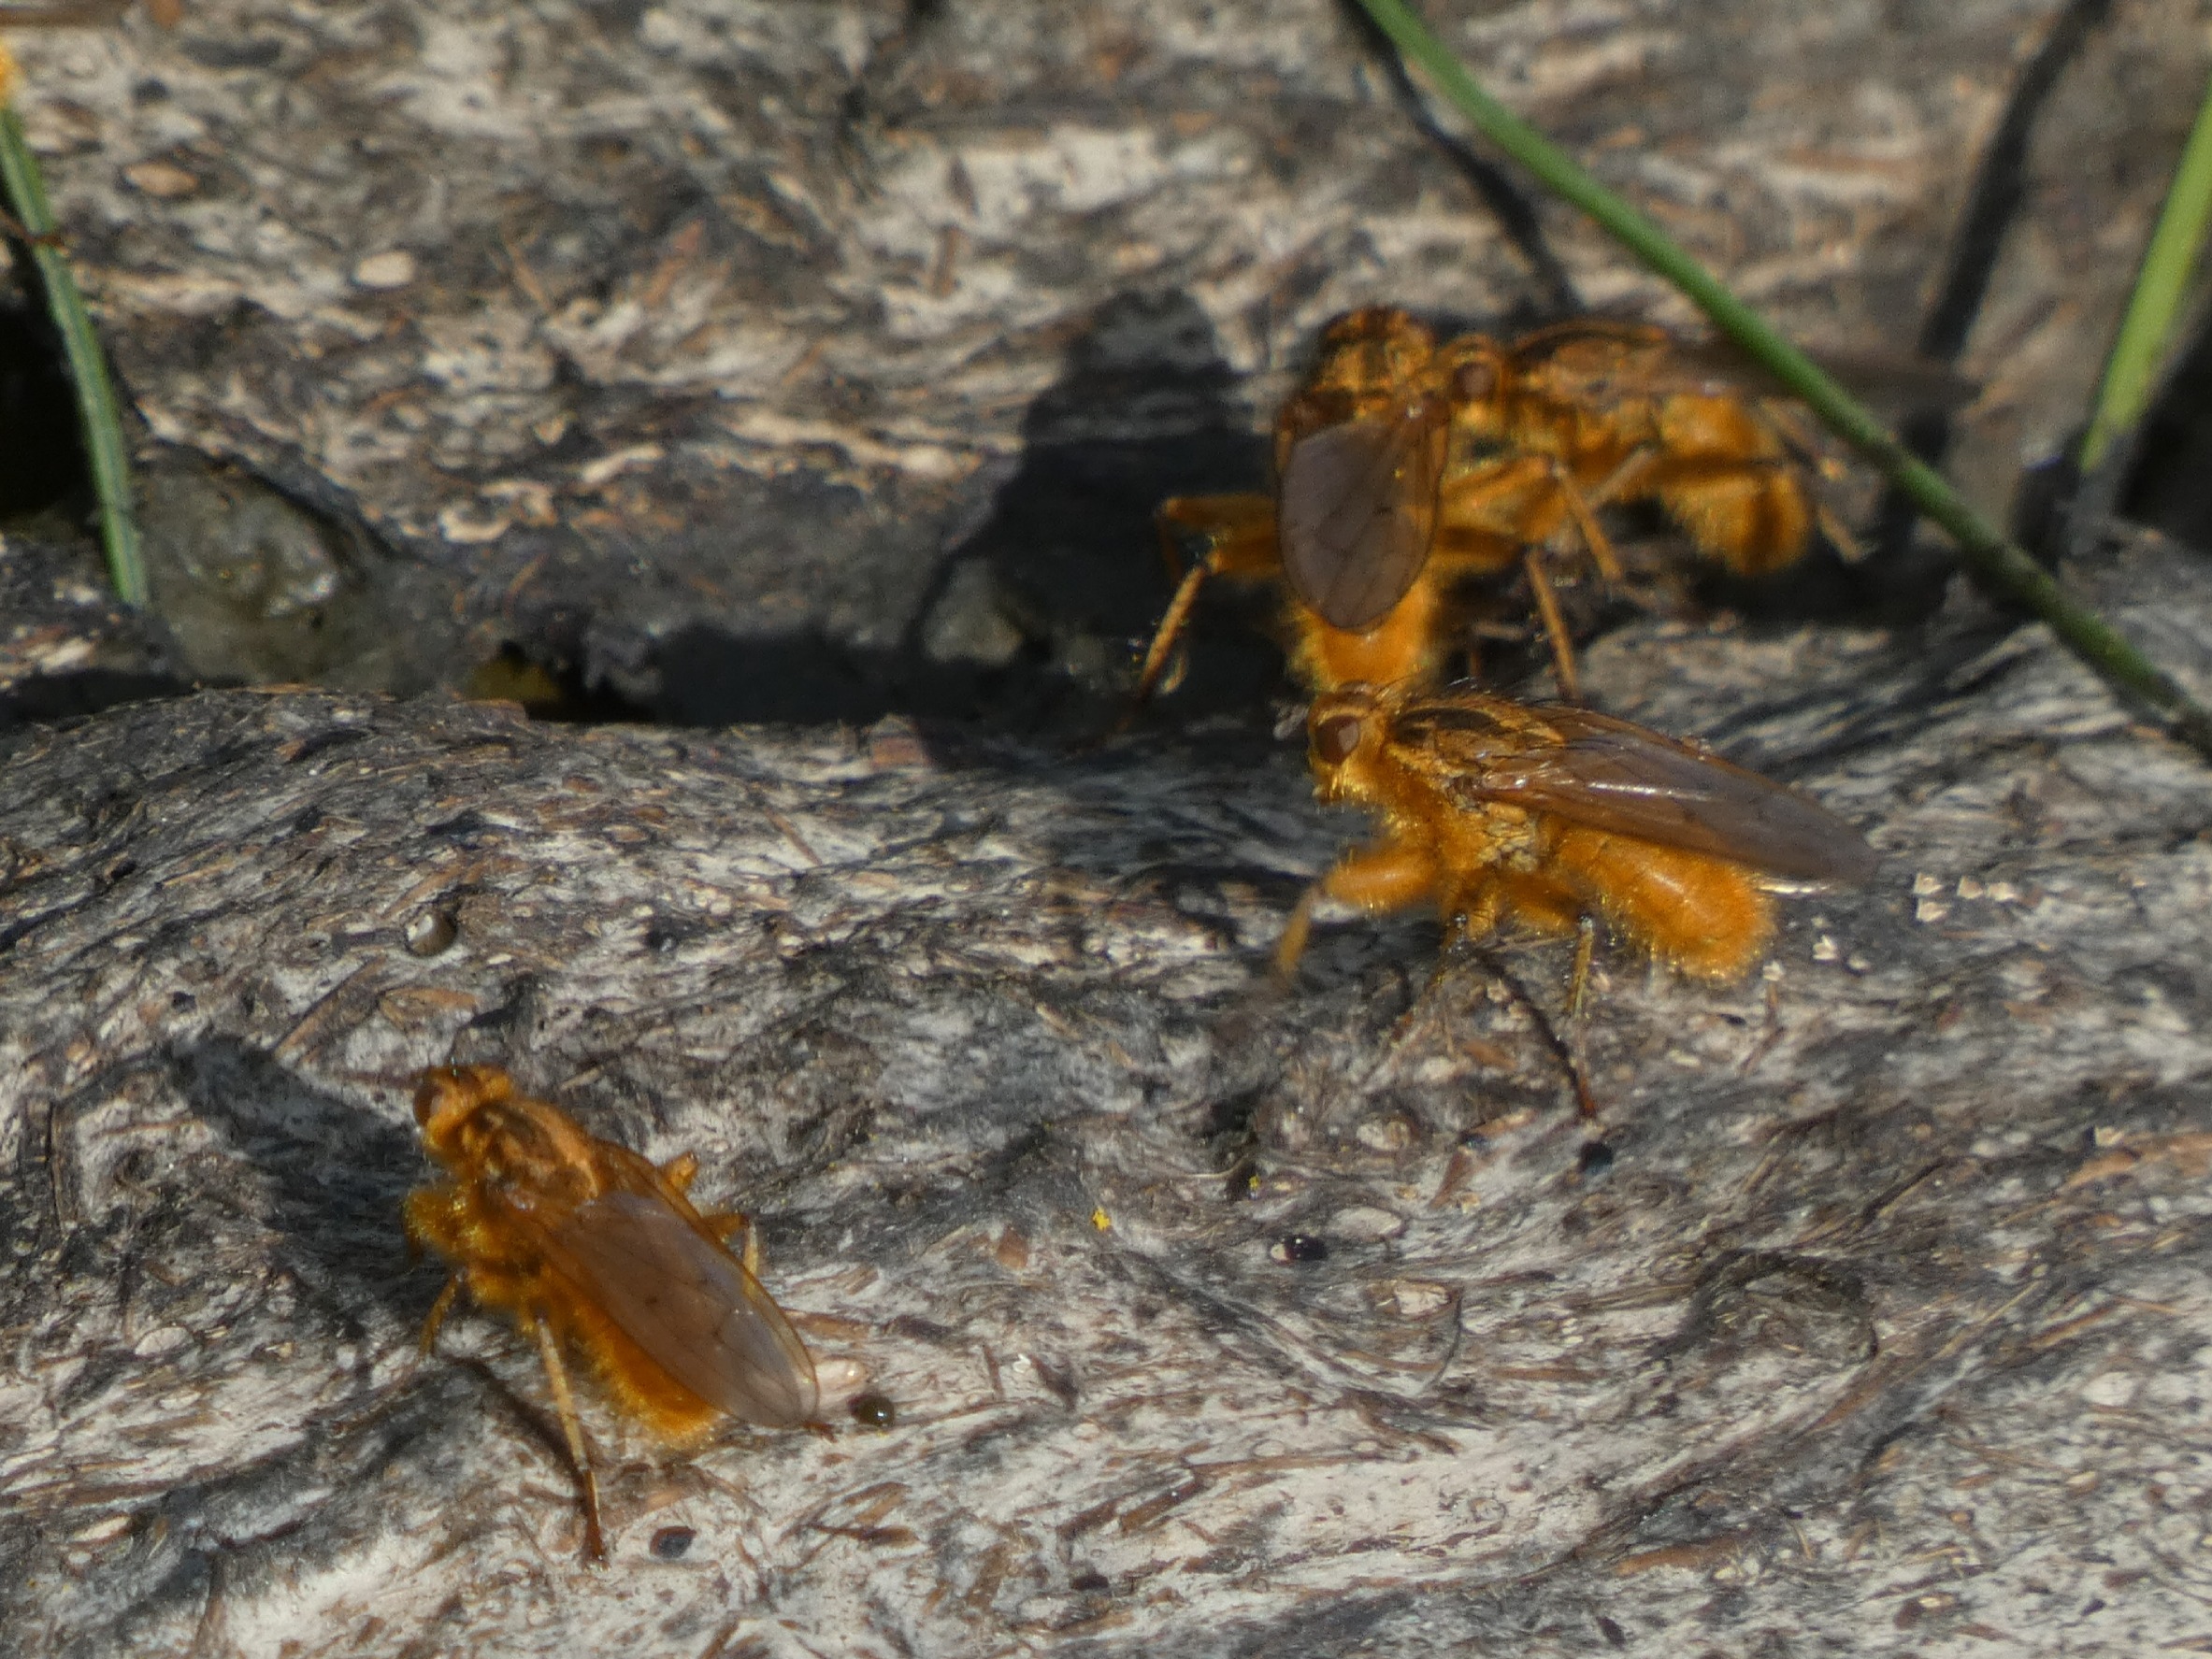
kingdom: Animalia
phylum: Arthropoda
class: Insecta
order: Diptera
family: Scathophagidae
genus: Scathophaga
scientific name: Scathophaga stercoraria
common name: Almindelig gødningsflue
